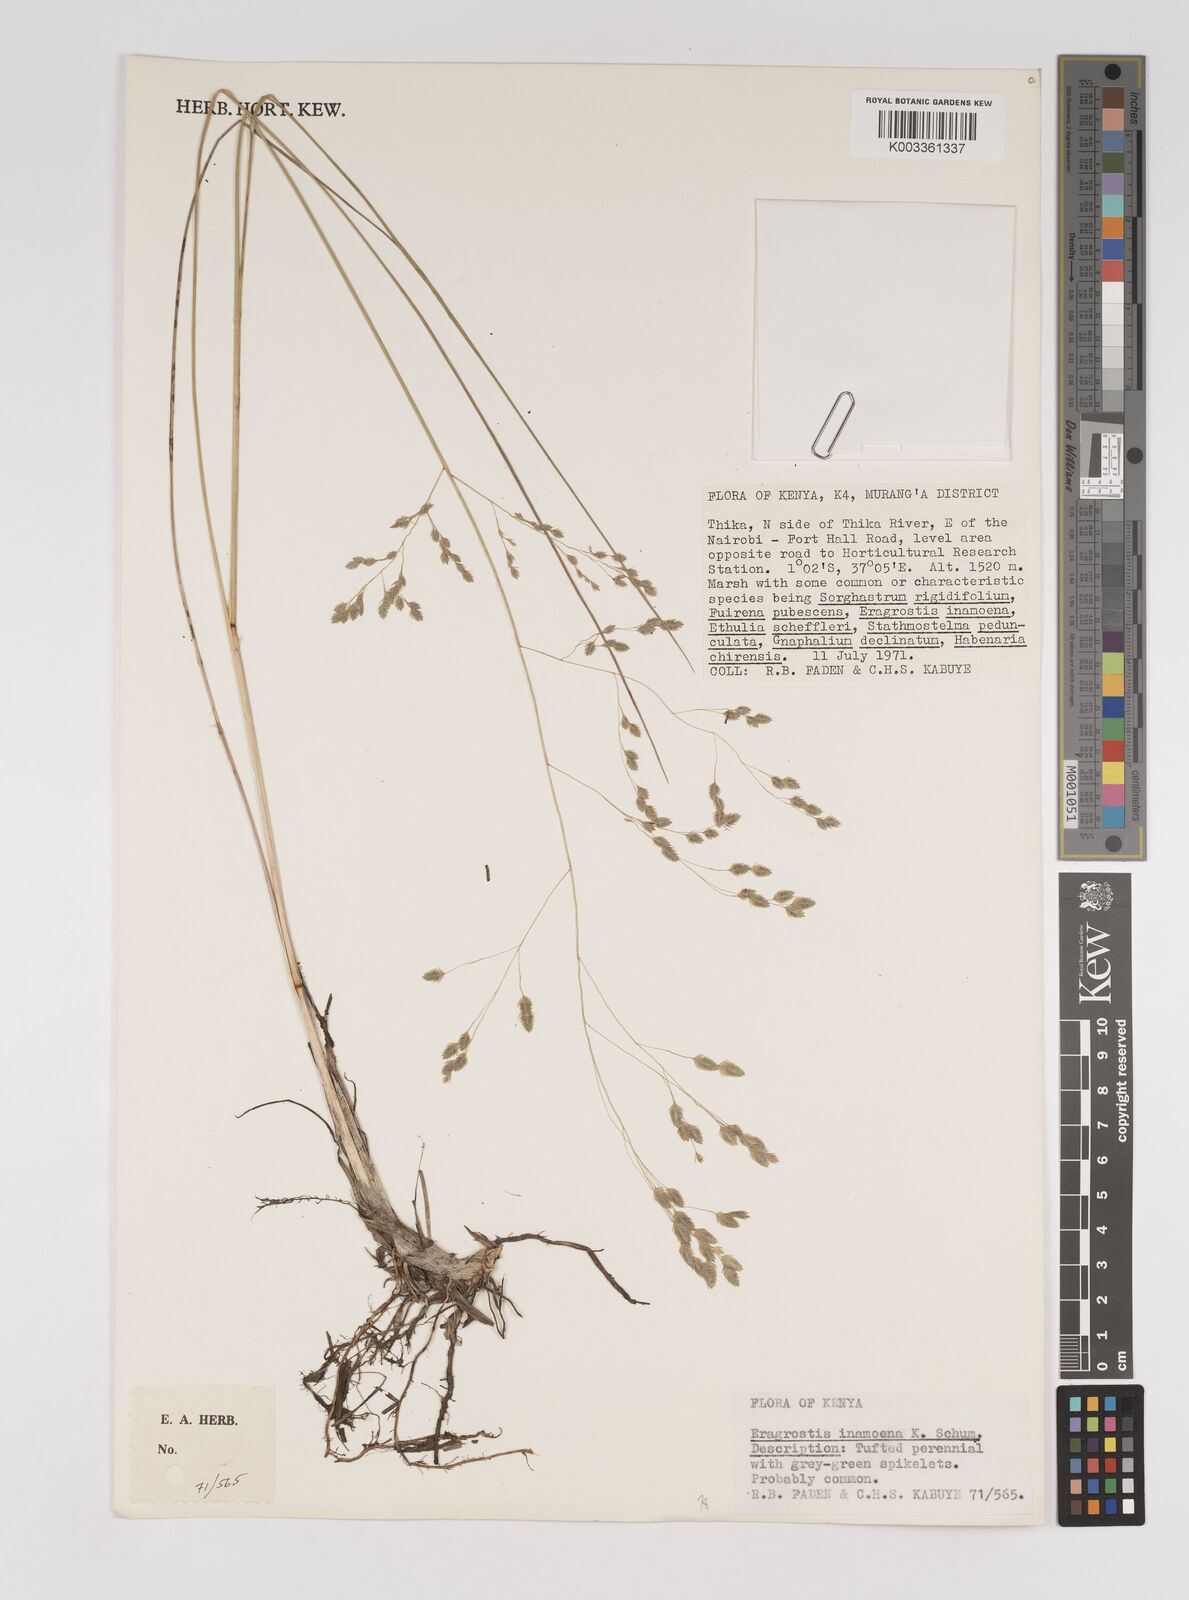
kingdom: Plantae
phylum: Tracheophyta
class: Liliopsida
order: Poales
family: Poaceae
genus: Eragrostis
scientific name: Eragrostis inamoena
